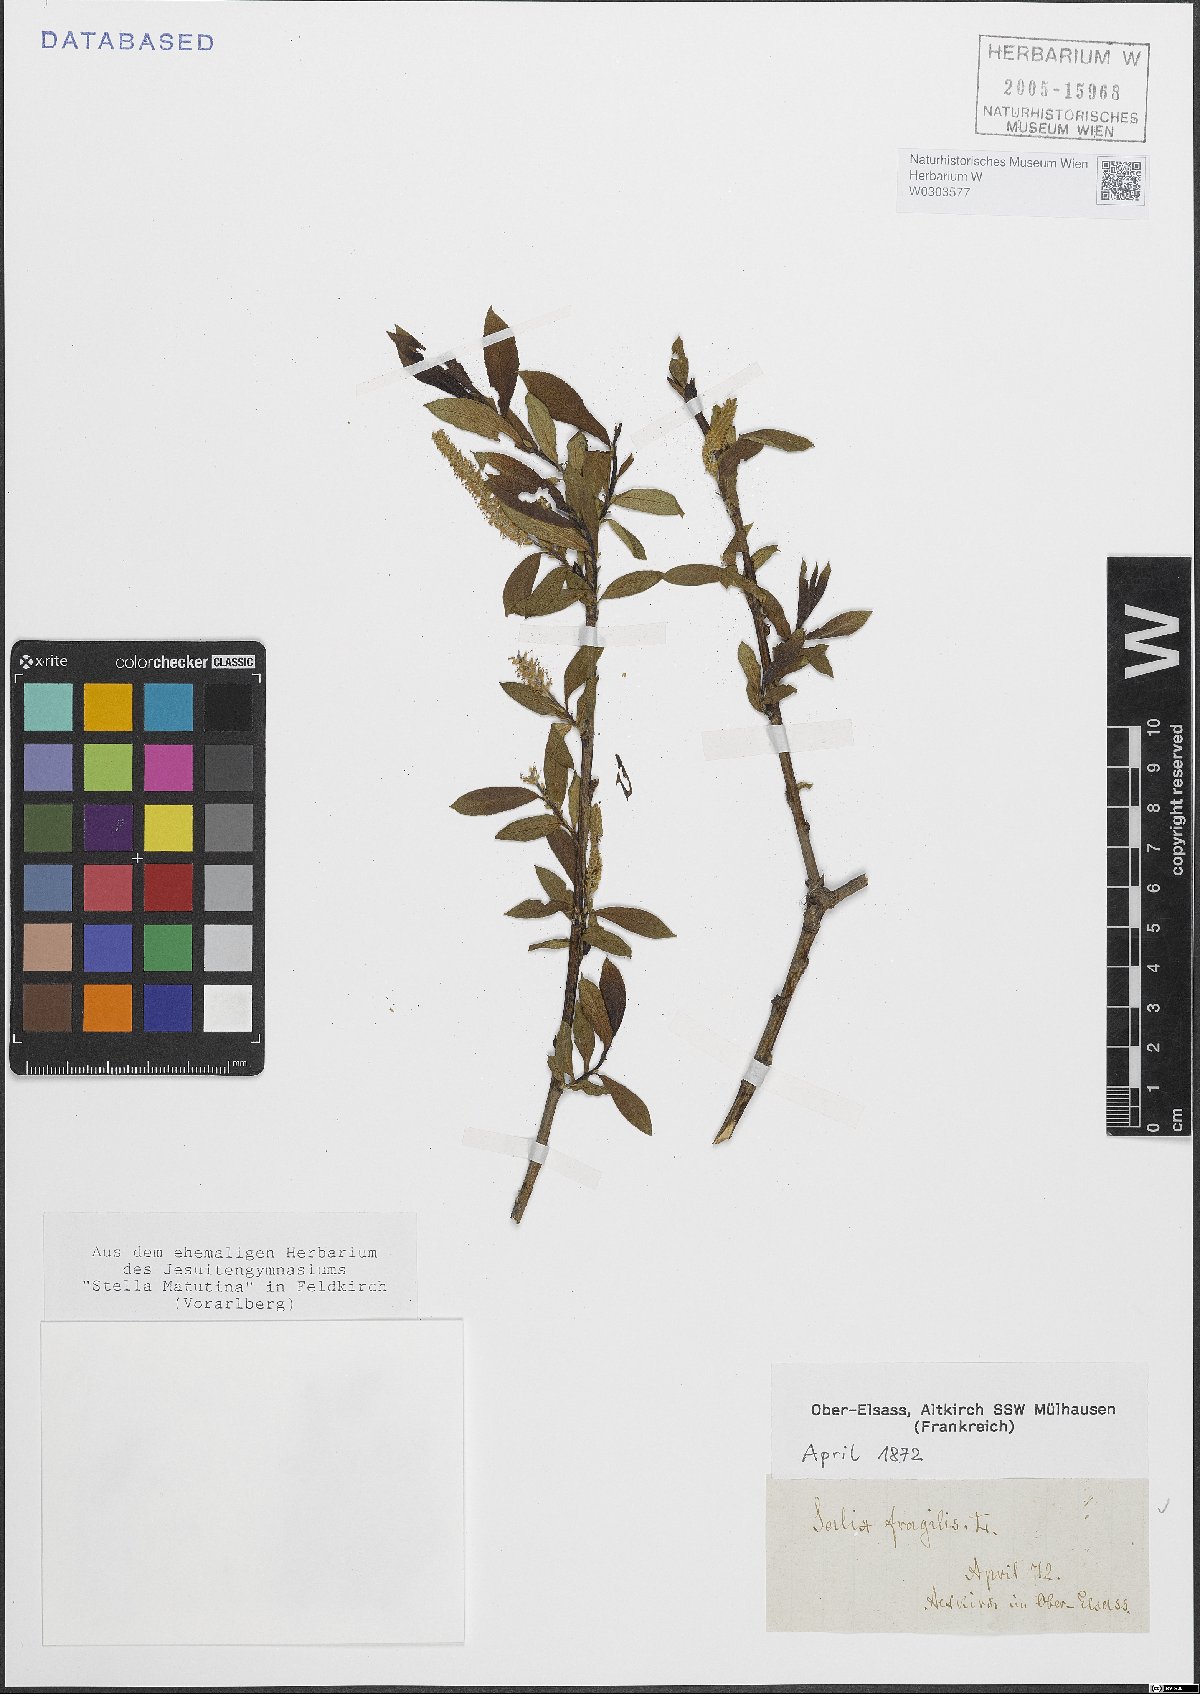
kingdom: Plantae
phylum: Tracheophyta
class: Magnoliopsida
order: Malpighiales
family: Salicaceae
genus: Salix
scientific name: Salix fragilis
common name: Crack willow
